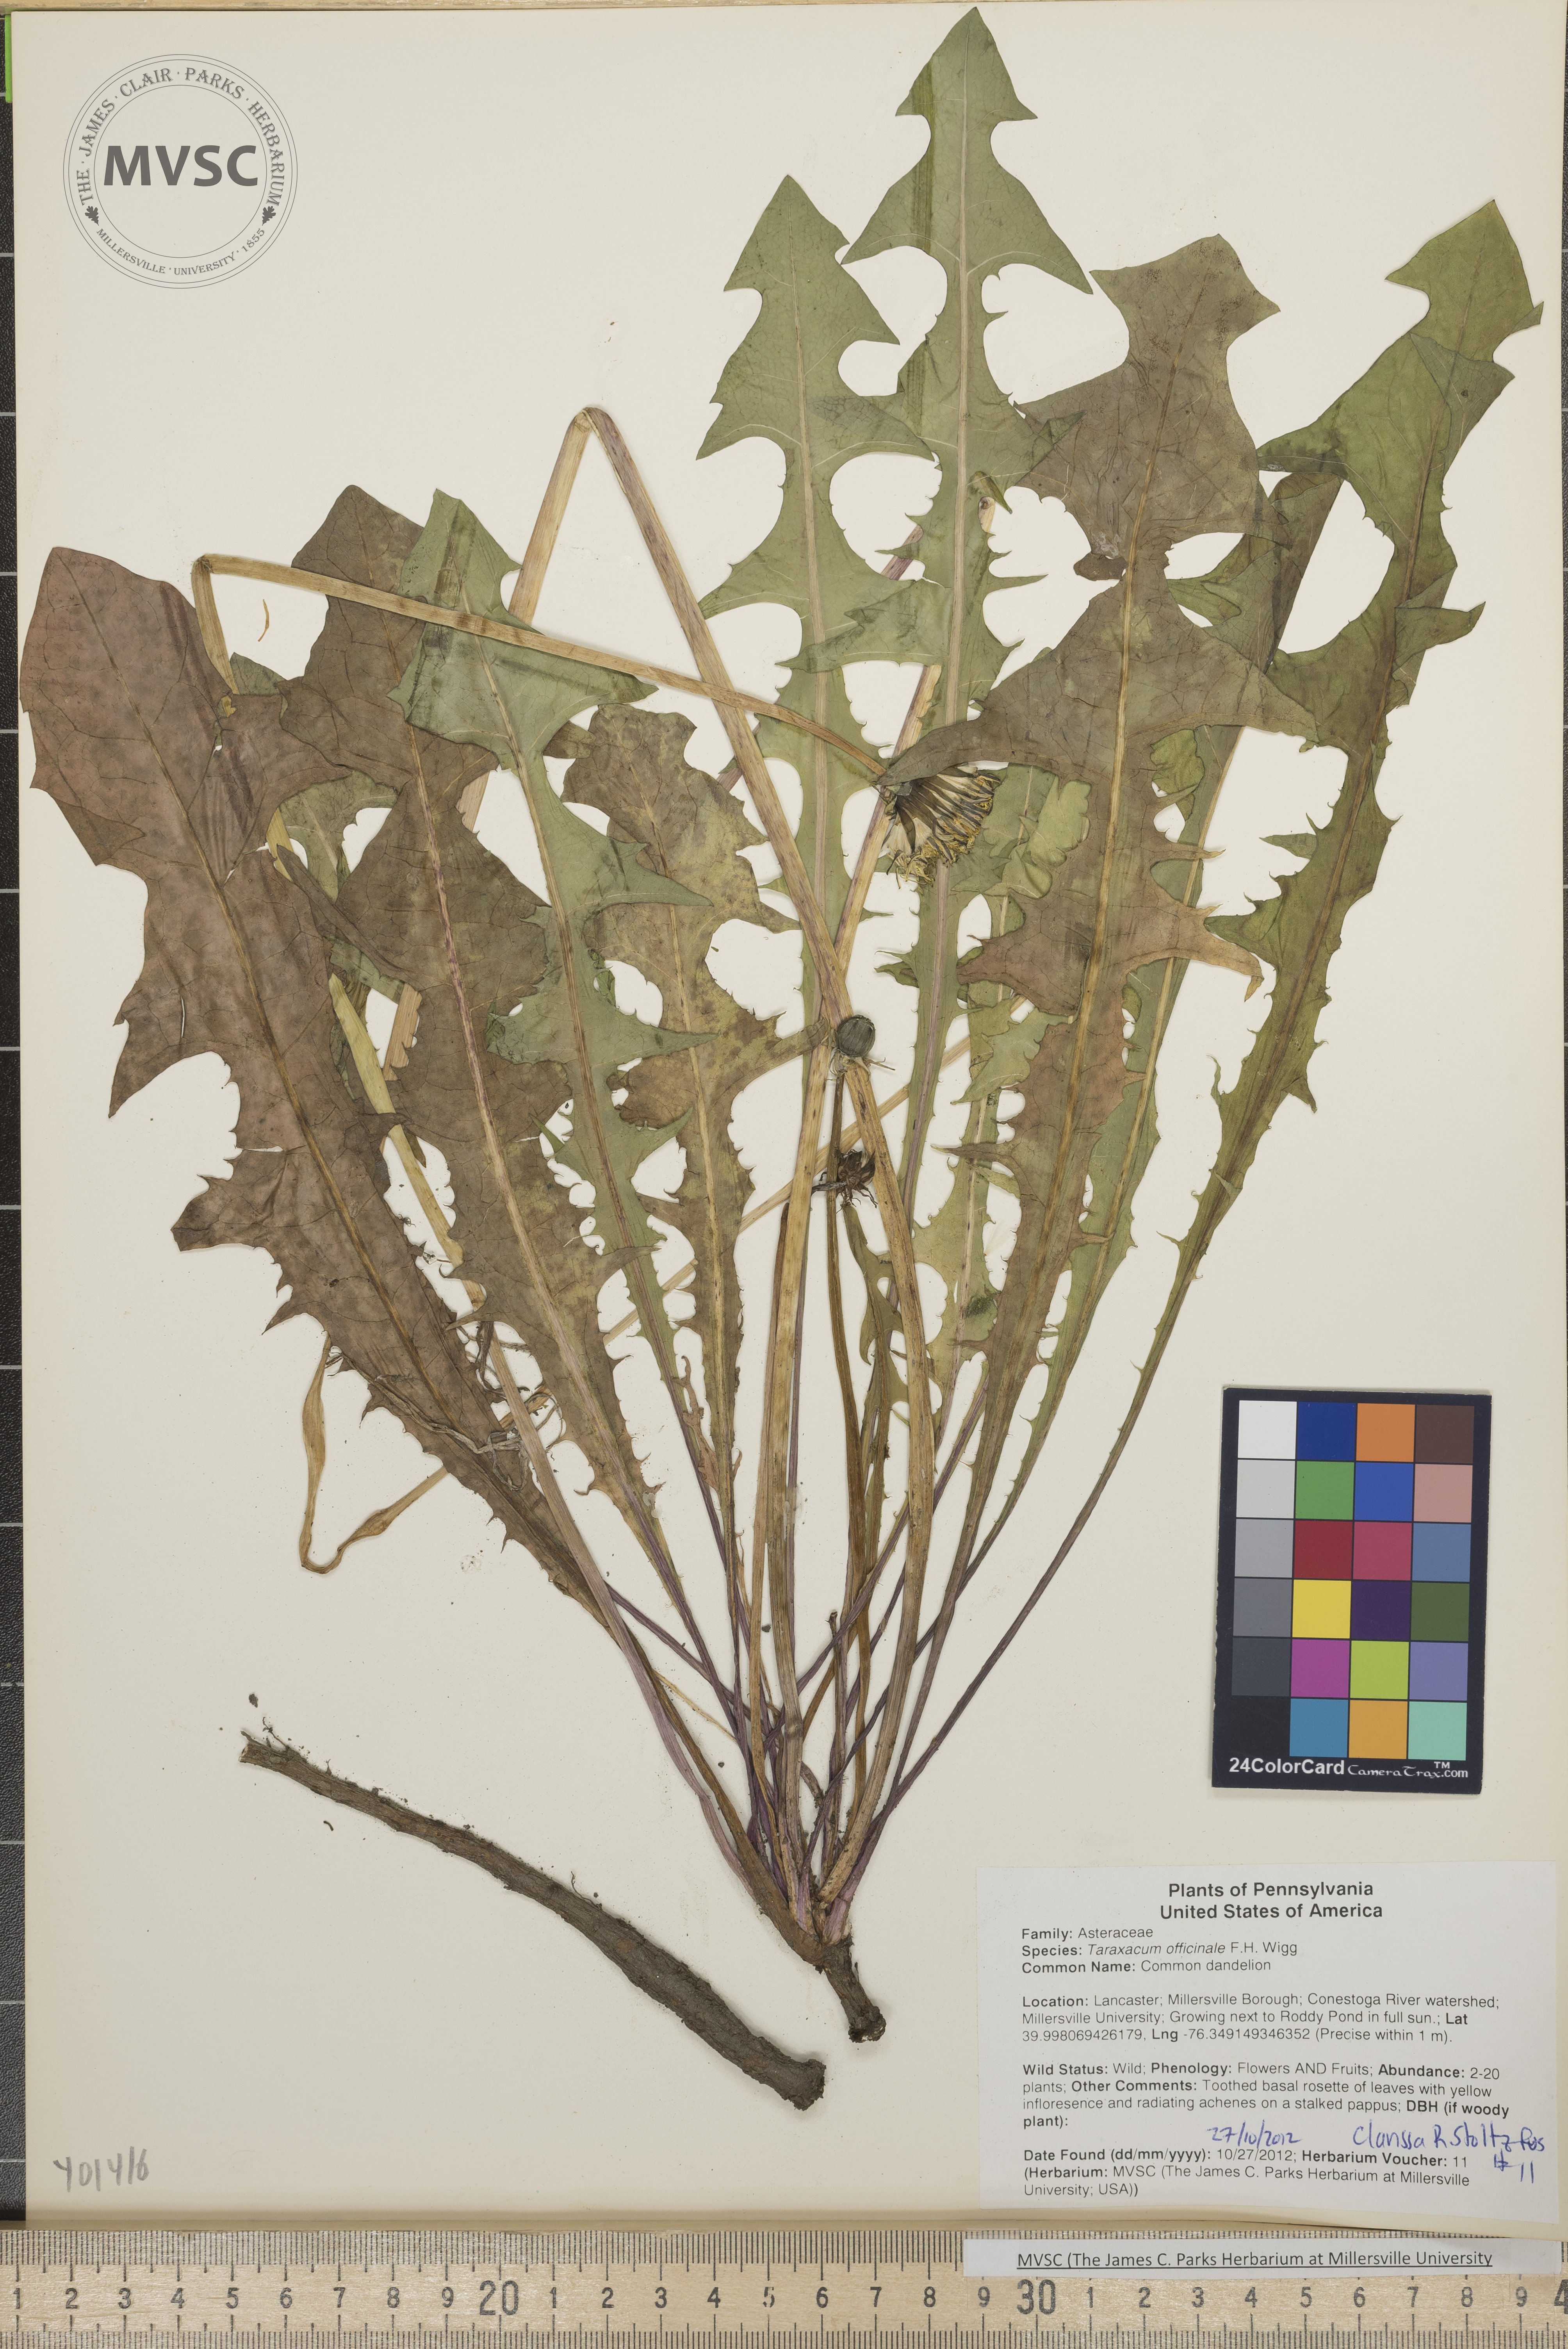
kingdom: Plantae
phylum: Tracheophyta
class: Magnoliopsida
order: Asterales
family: Asteraceae
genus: Taraxacum
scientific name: Taraxacum officinale
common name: Common dandelion
